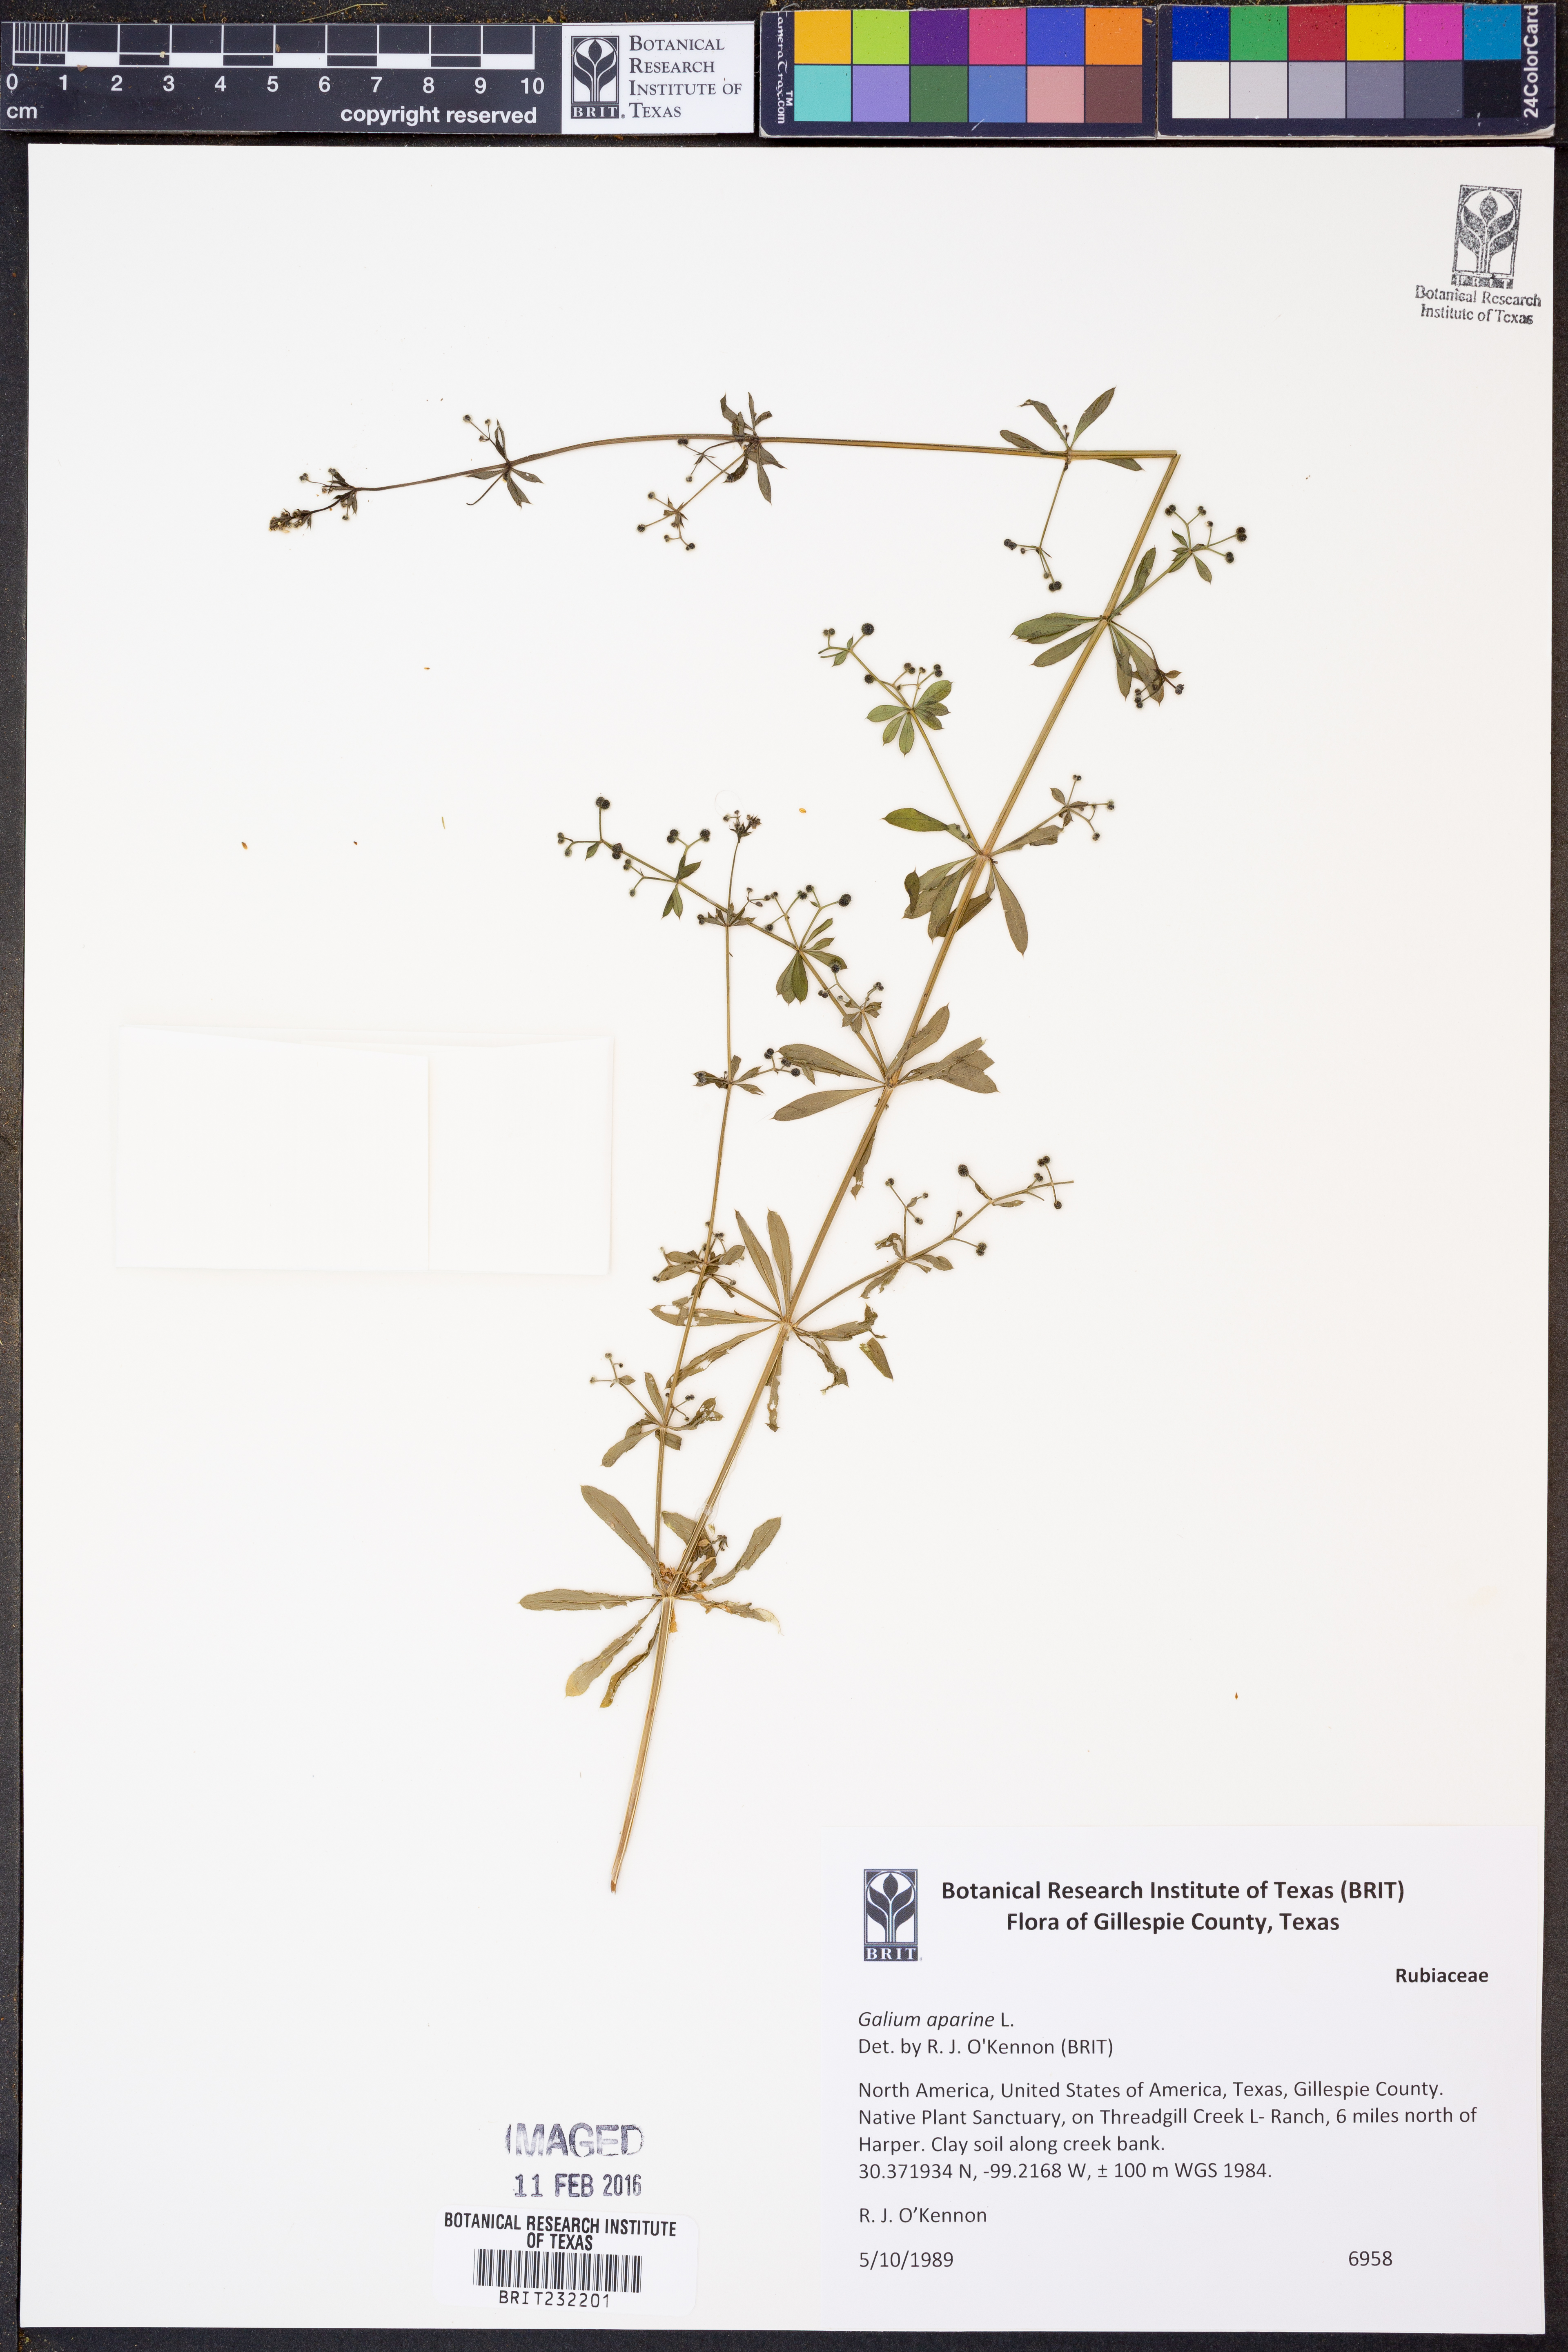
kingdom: Plantae
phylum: Tracheophyta
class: Magnoliopsida
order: Gentianales
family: Rubiaceae
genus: Galium
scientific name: Galium aparine
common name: Cleavers
